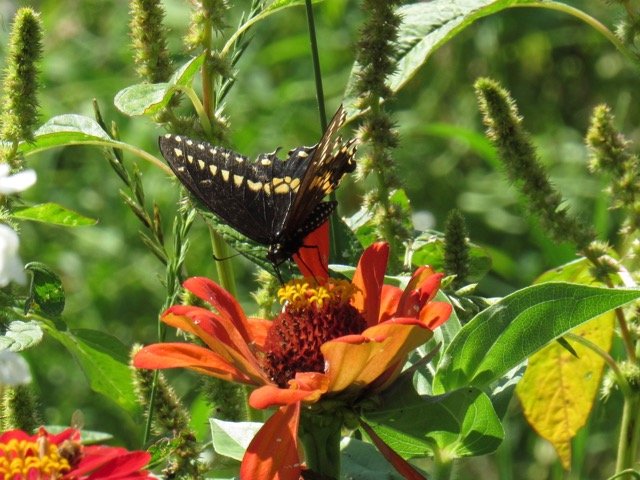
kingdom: Animalia
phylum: Arthropoda
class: Insecta
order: Lepidoptera
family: Papilionidae
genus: Papilio
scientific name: Papilio polyxenes
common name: Black Swallowtail
